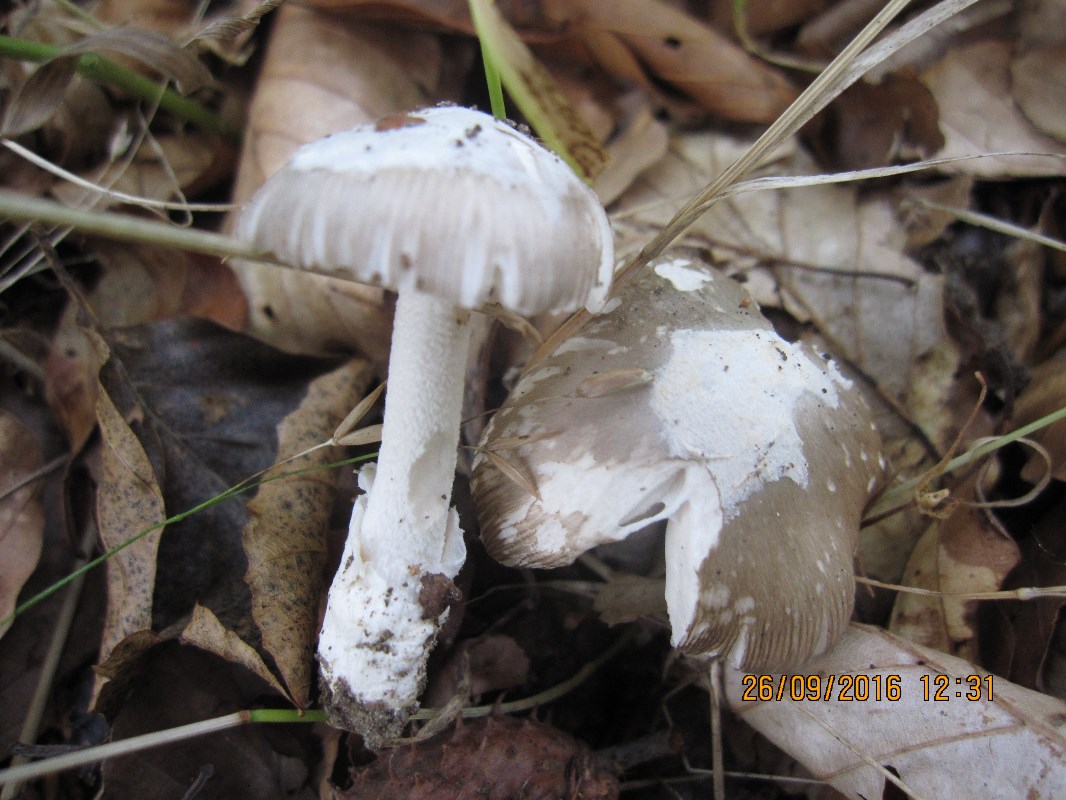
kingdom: Fungi
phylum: Basidiomycota
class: Agaricomycetes
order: Agaricales
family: Amanitaceae
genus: Amanita
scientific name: Amanita vaginata
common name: grå kam-fluesvamp
